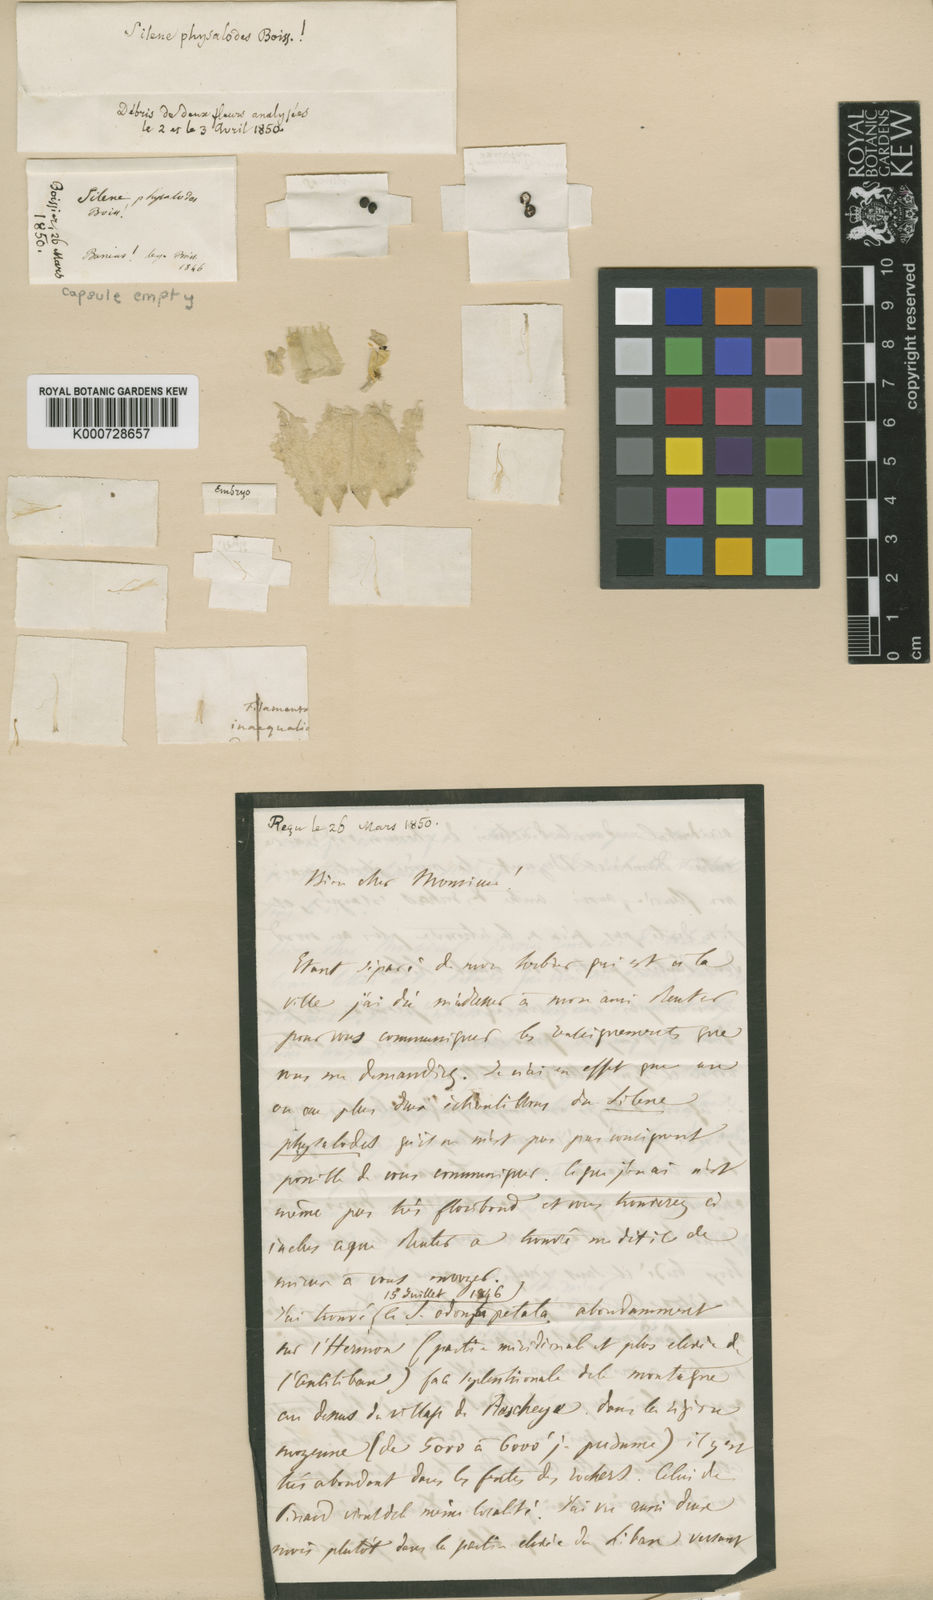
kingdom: Plantae
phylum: Tracheophyta
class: Magnoliopsida
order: Caryophyllales
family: Caryophyllaceae
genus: Silene
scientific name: Silene physalodes
